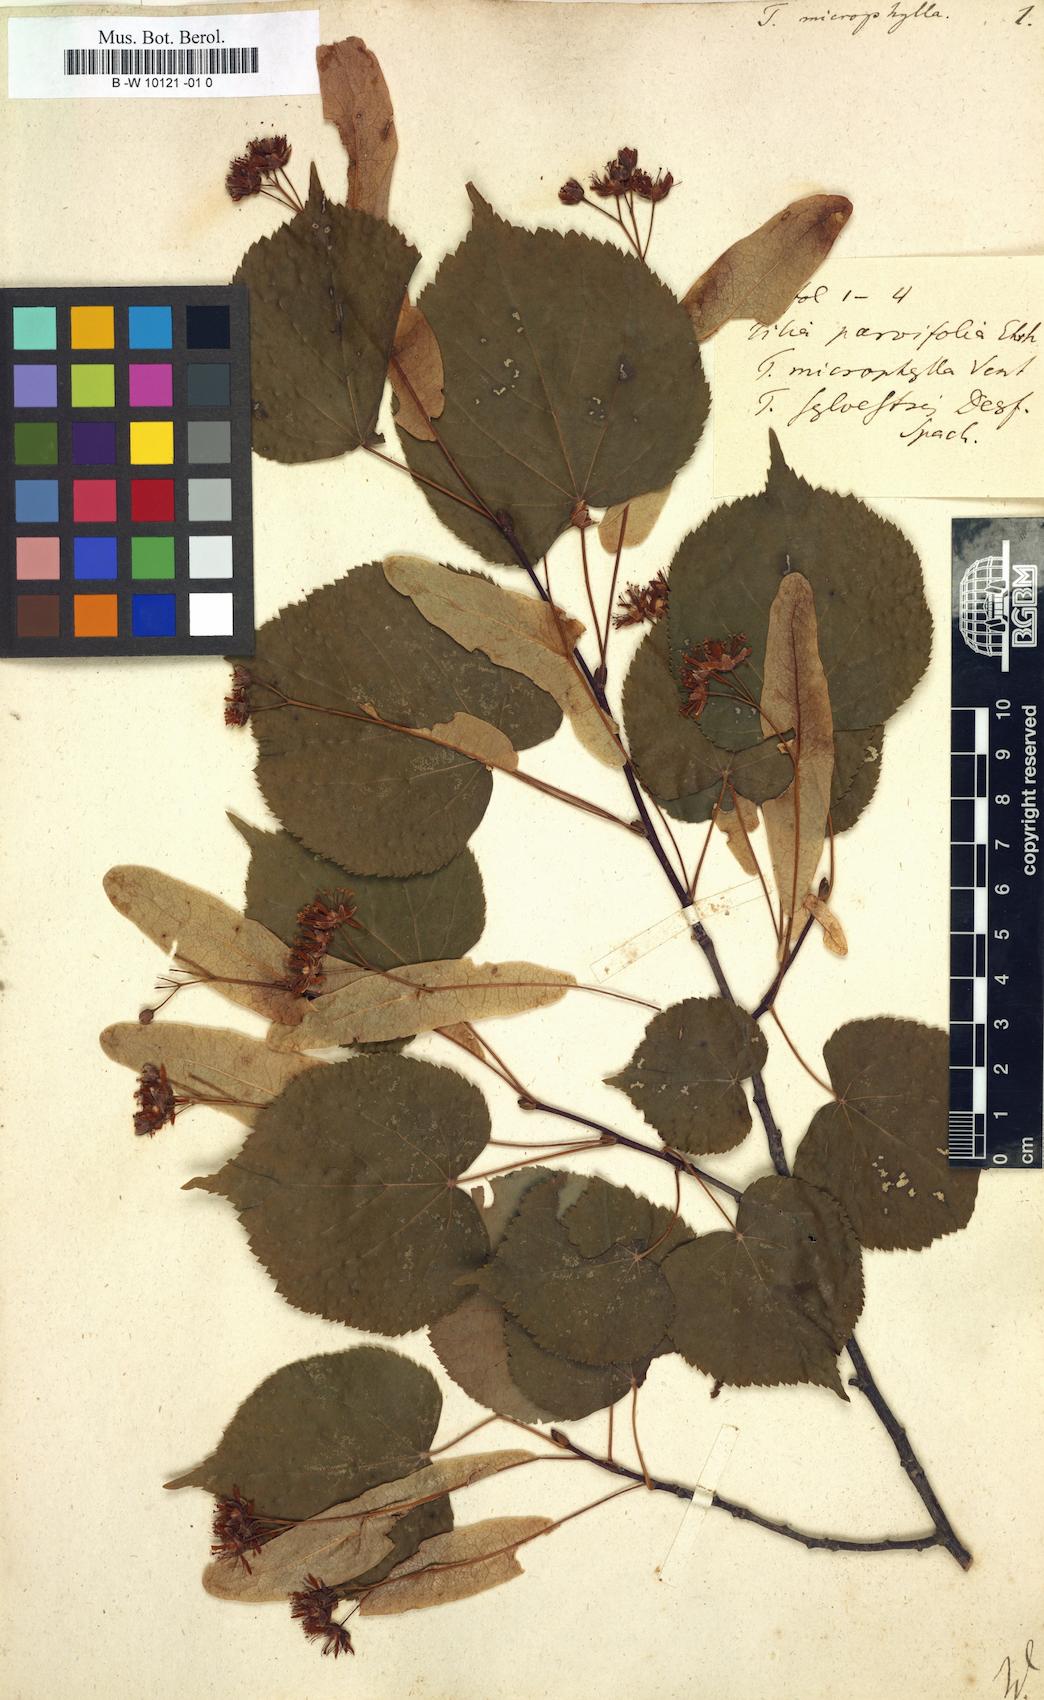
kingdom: Plantae
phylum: Tracheophyta
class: Magnoliopsida
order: Malvales
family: Malvaceae
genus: Tilia
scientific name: Tilia cordata
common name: Small-leaved lime
